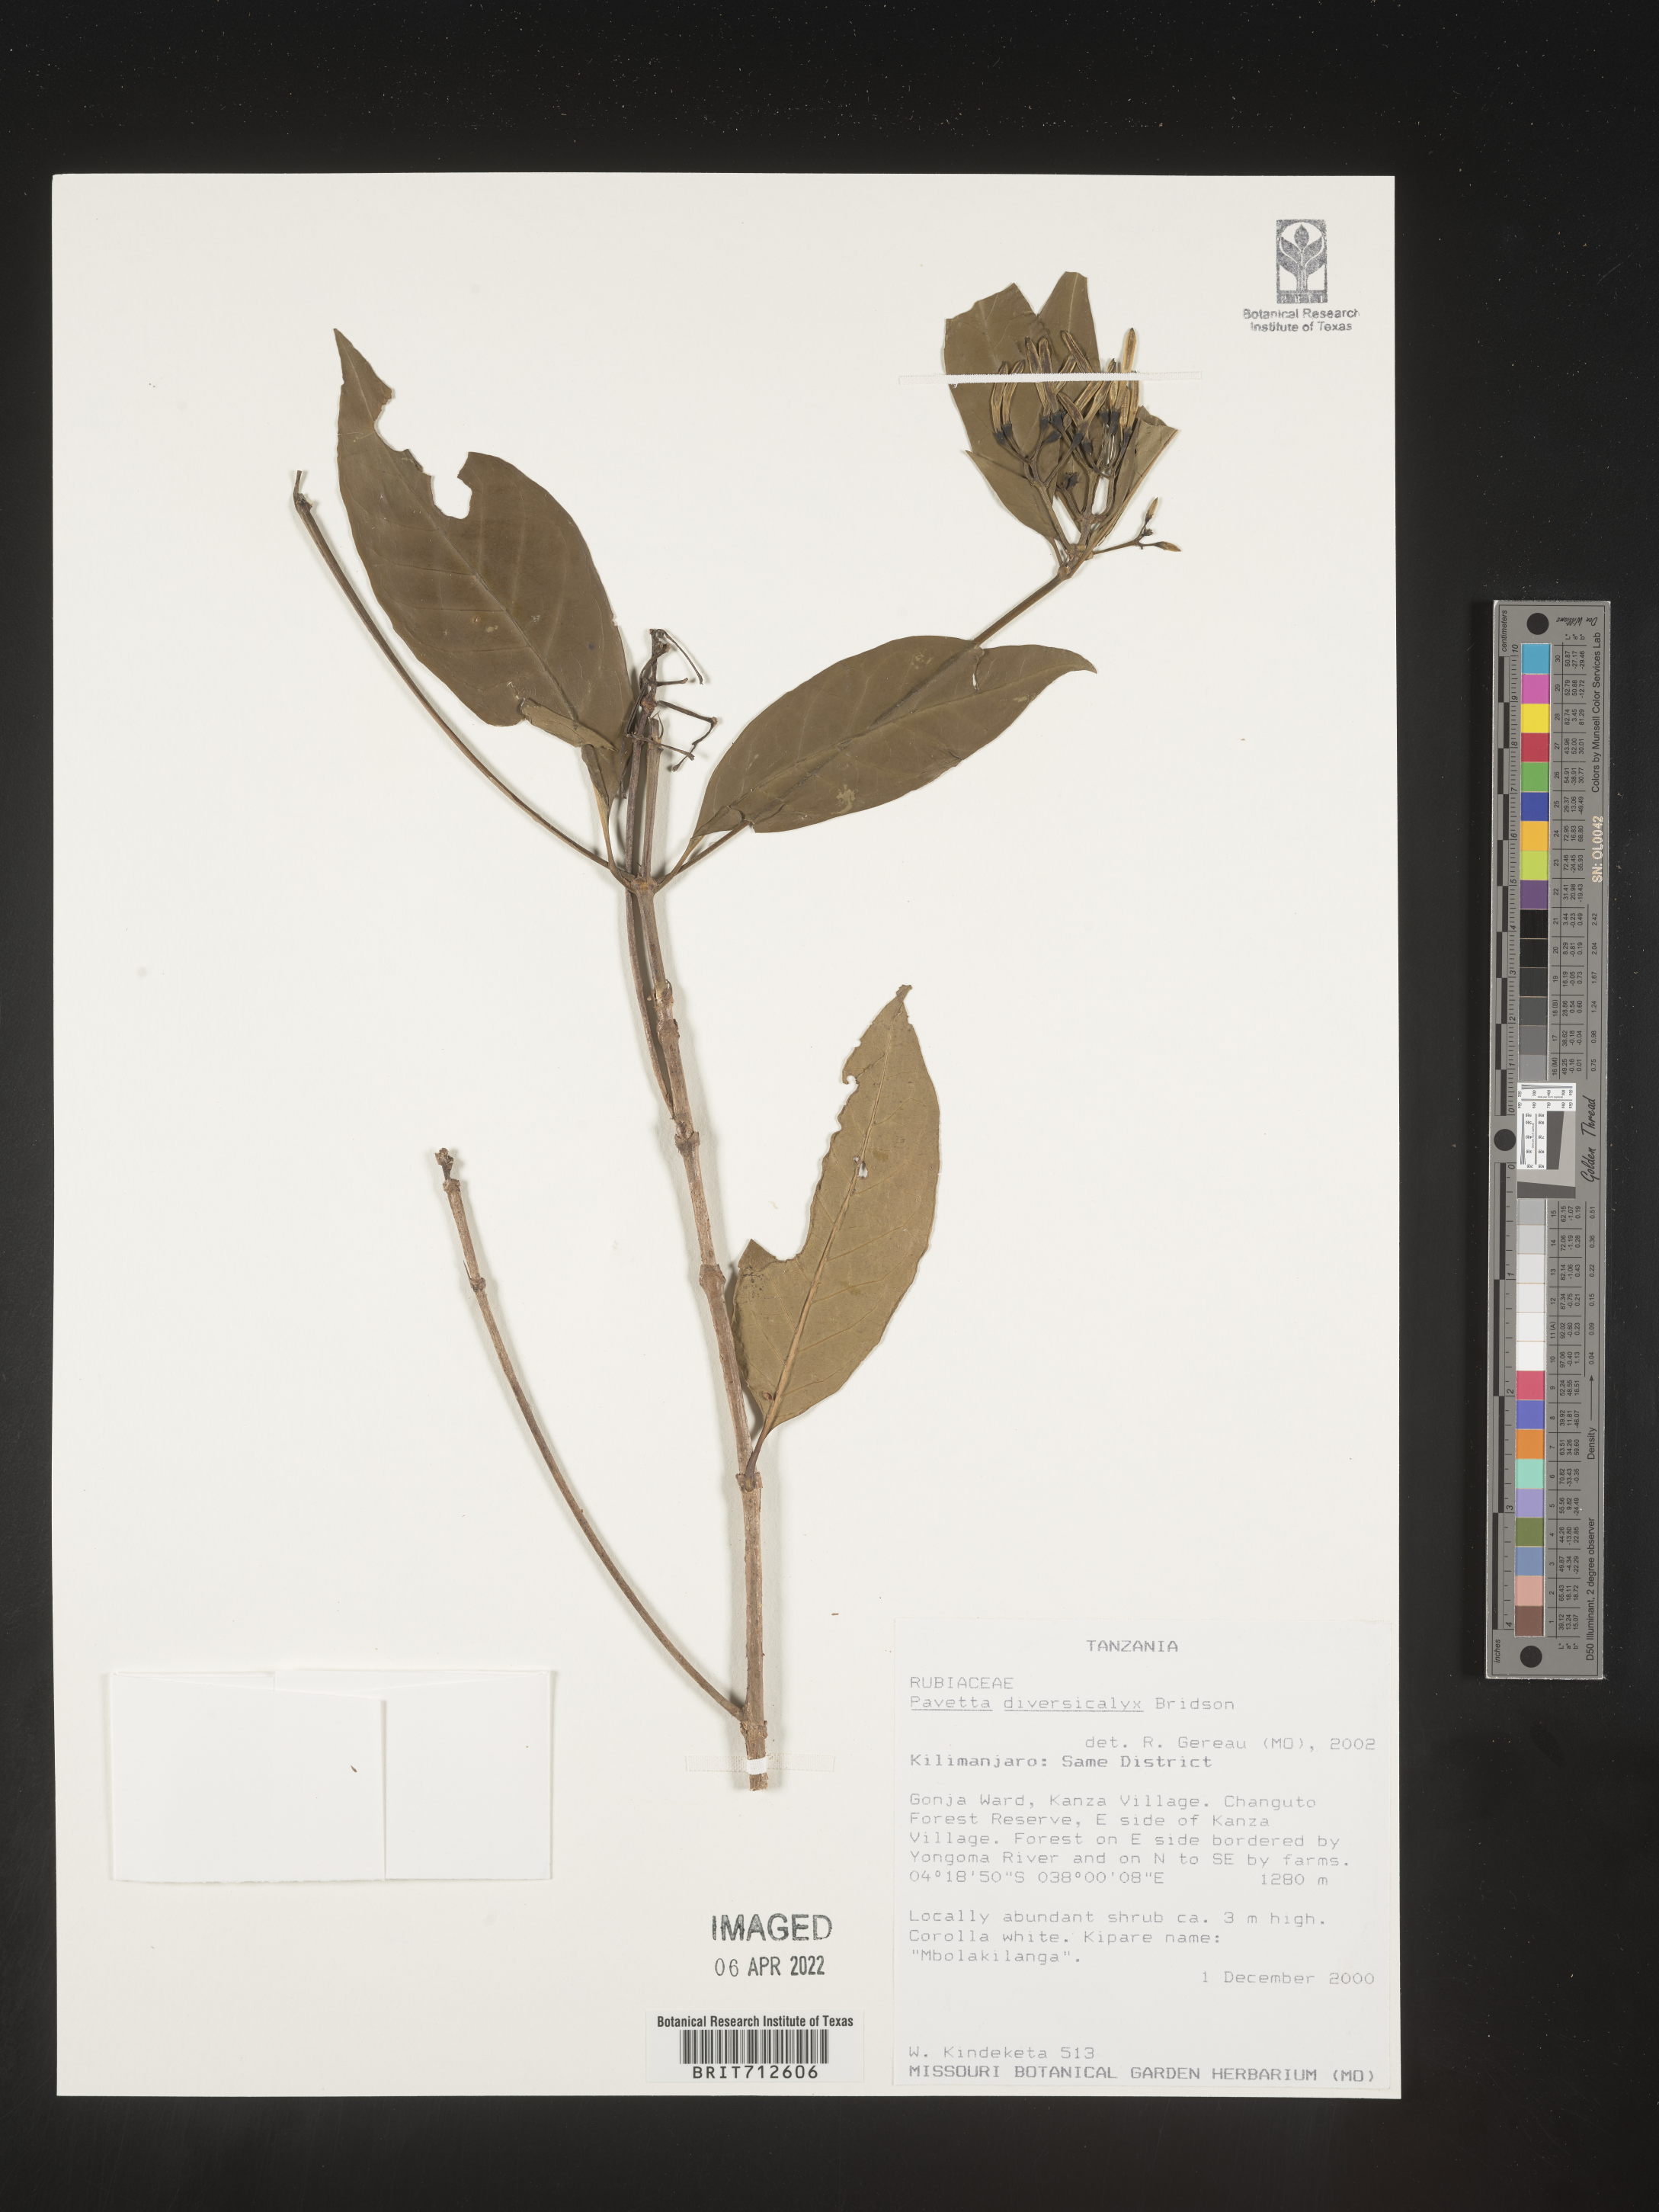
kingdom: Plantae
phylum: Tracheophyta
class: Magnoliopsida
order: Gentianales
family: Rubiaceae
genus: Pavetta
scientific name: Pavetta
